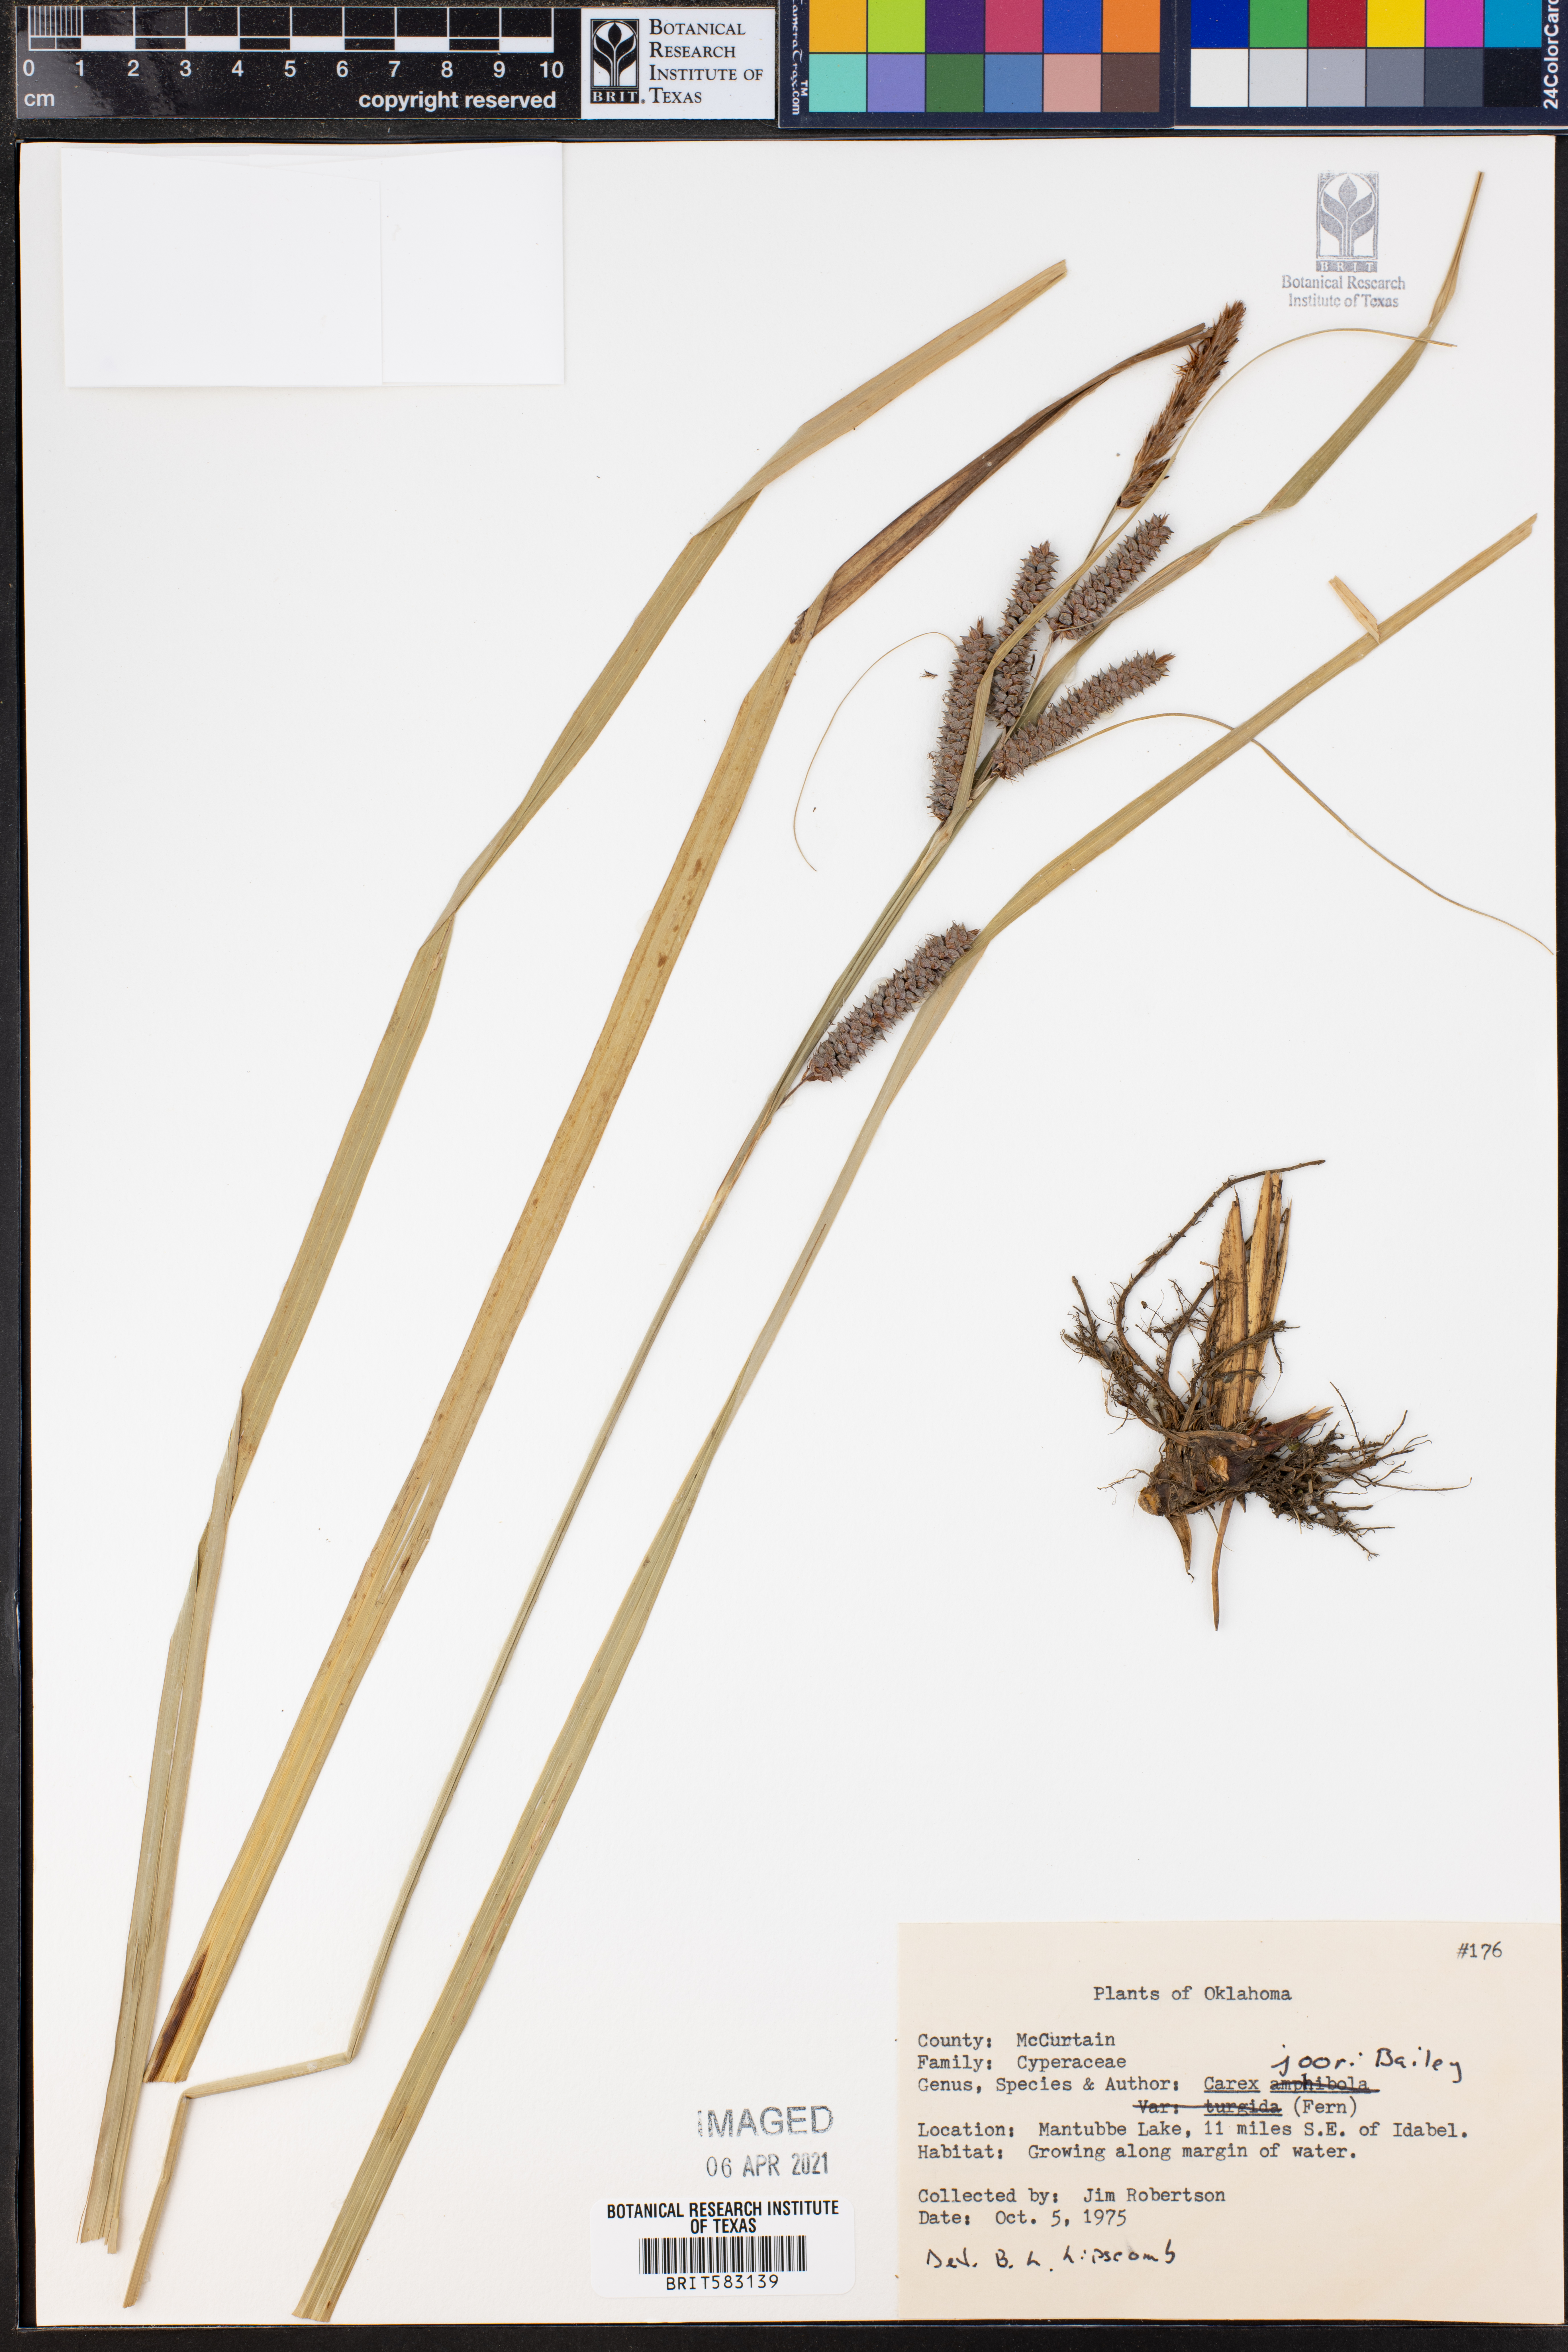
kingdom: Plantae
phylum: Tracheophyta
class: Liliopsida
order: Poales
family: Cyperaceae
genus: Carex
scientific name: Carex joorii
